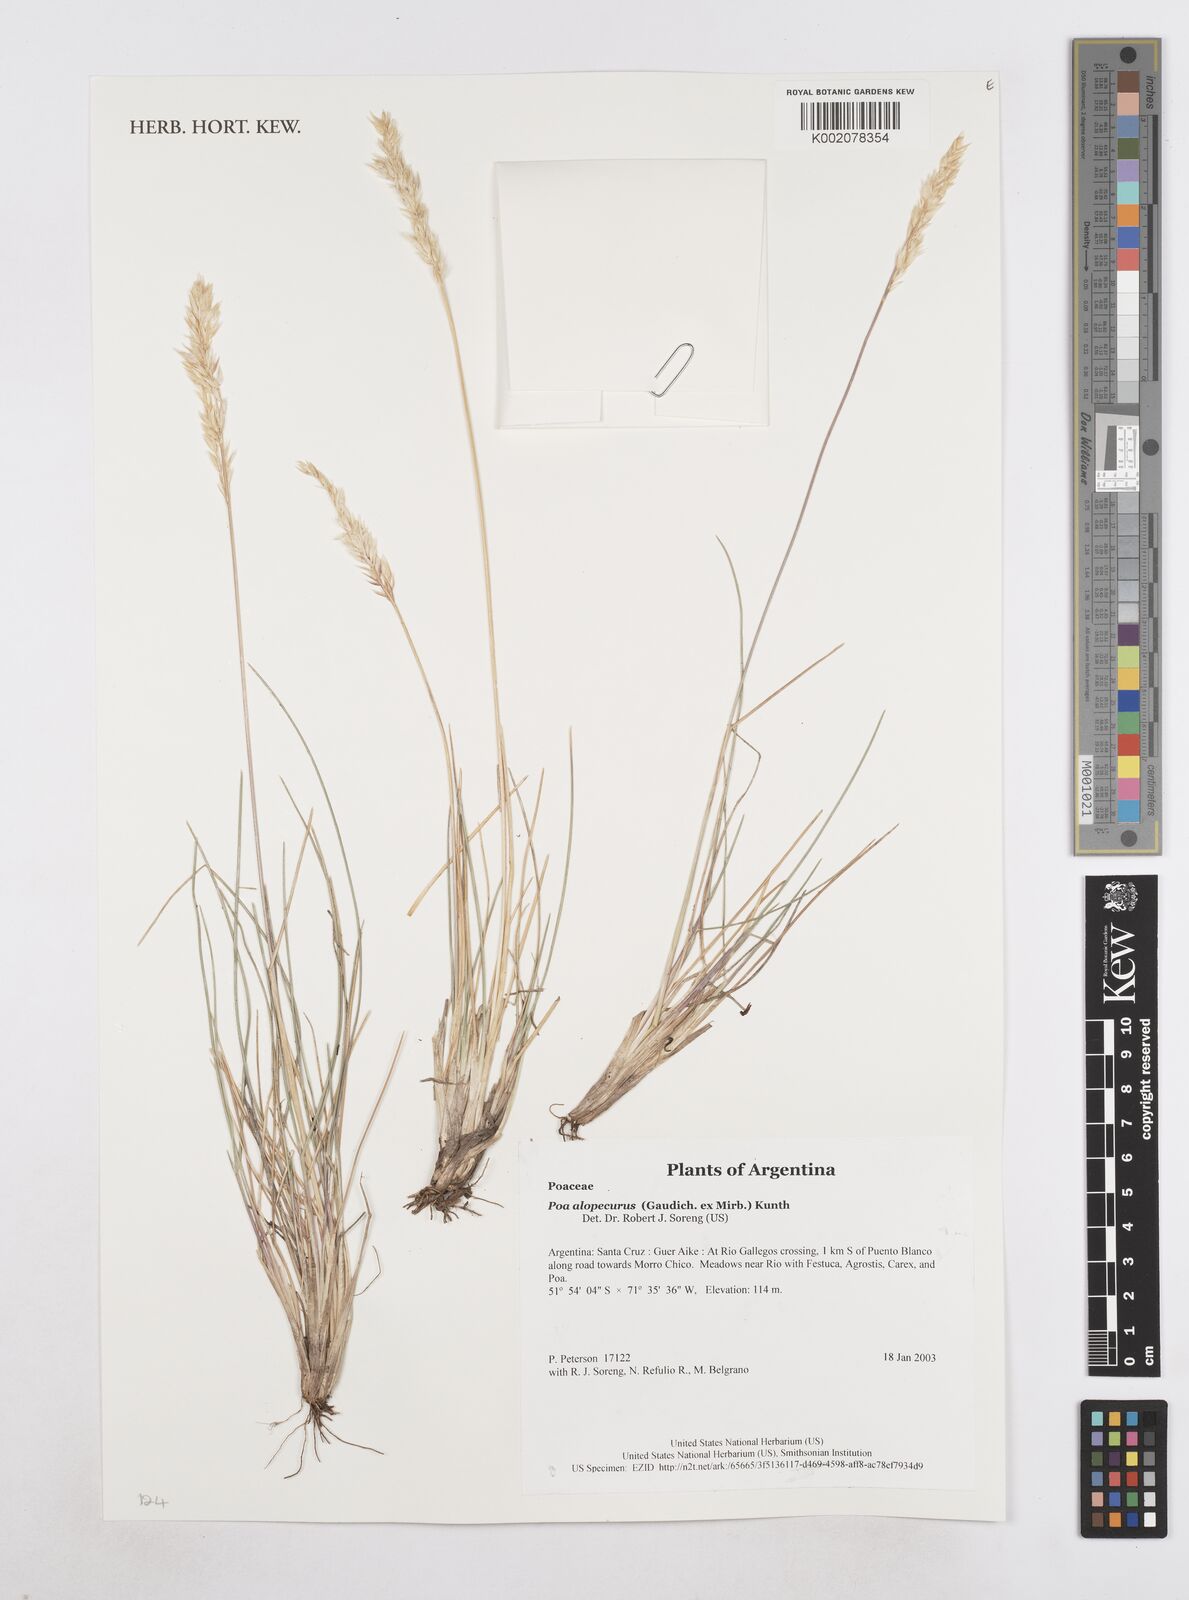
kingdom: Plantae
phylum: Tracheophyta
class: Liliopsida
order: Poales
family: Poaceae
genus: Poa
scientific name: Poa alopecurus
